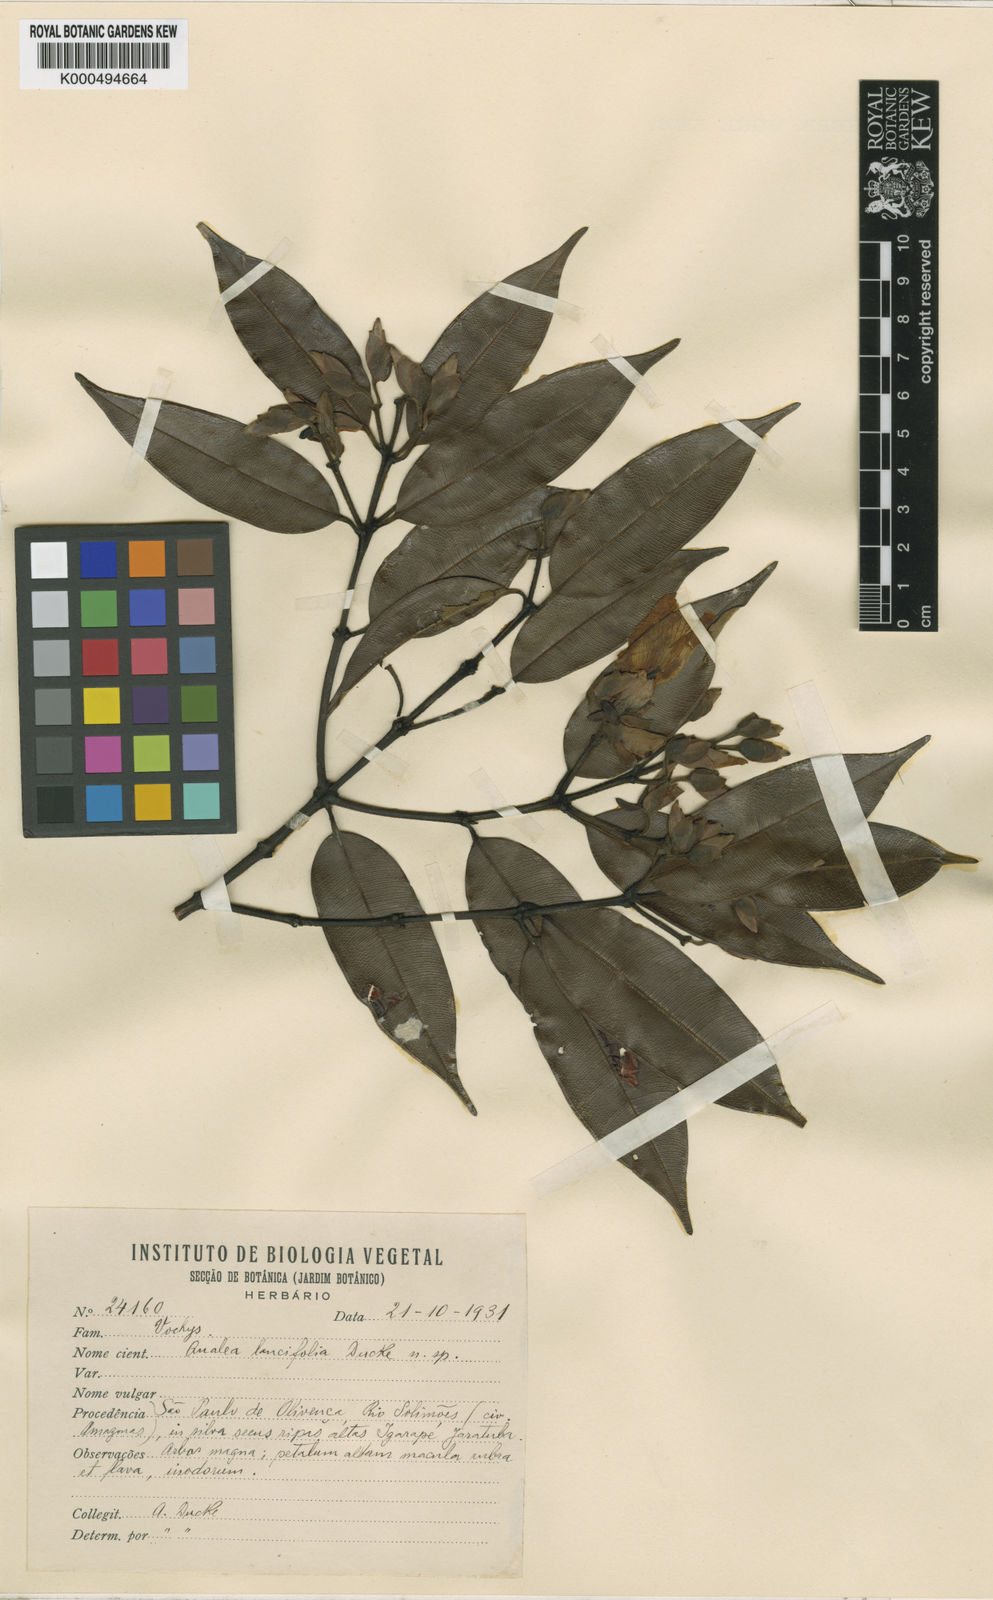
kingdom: Plantae
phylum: Tracheophyta
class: Magnoliopsida
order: Myrtales
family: Vochysiaceae
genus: Qualea
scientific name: Qualea gracilior
